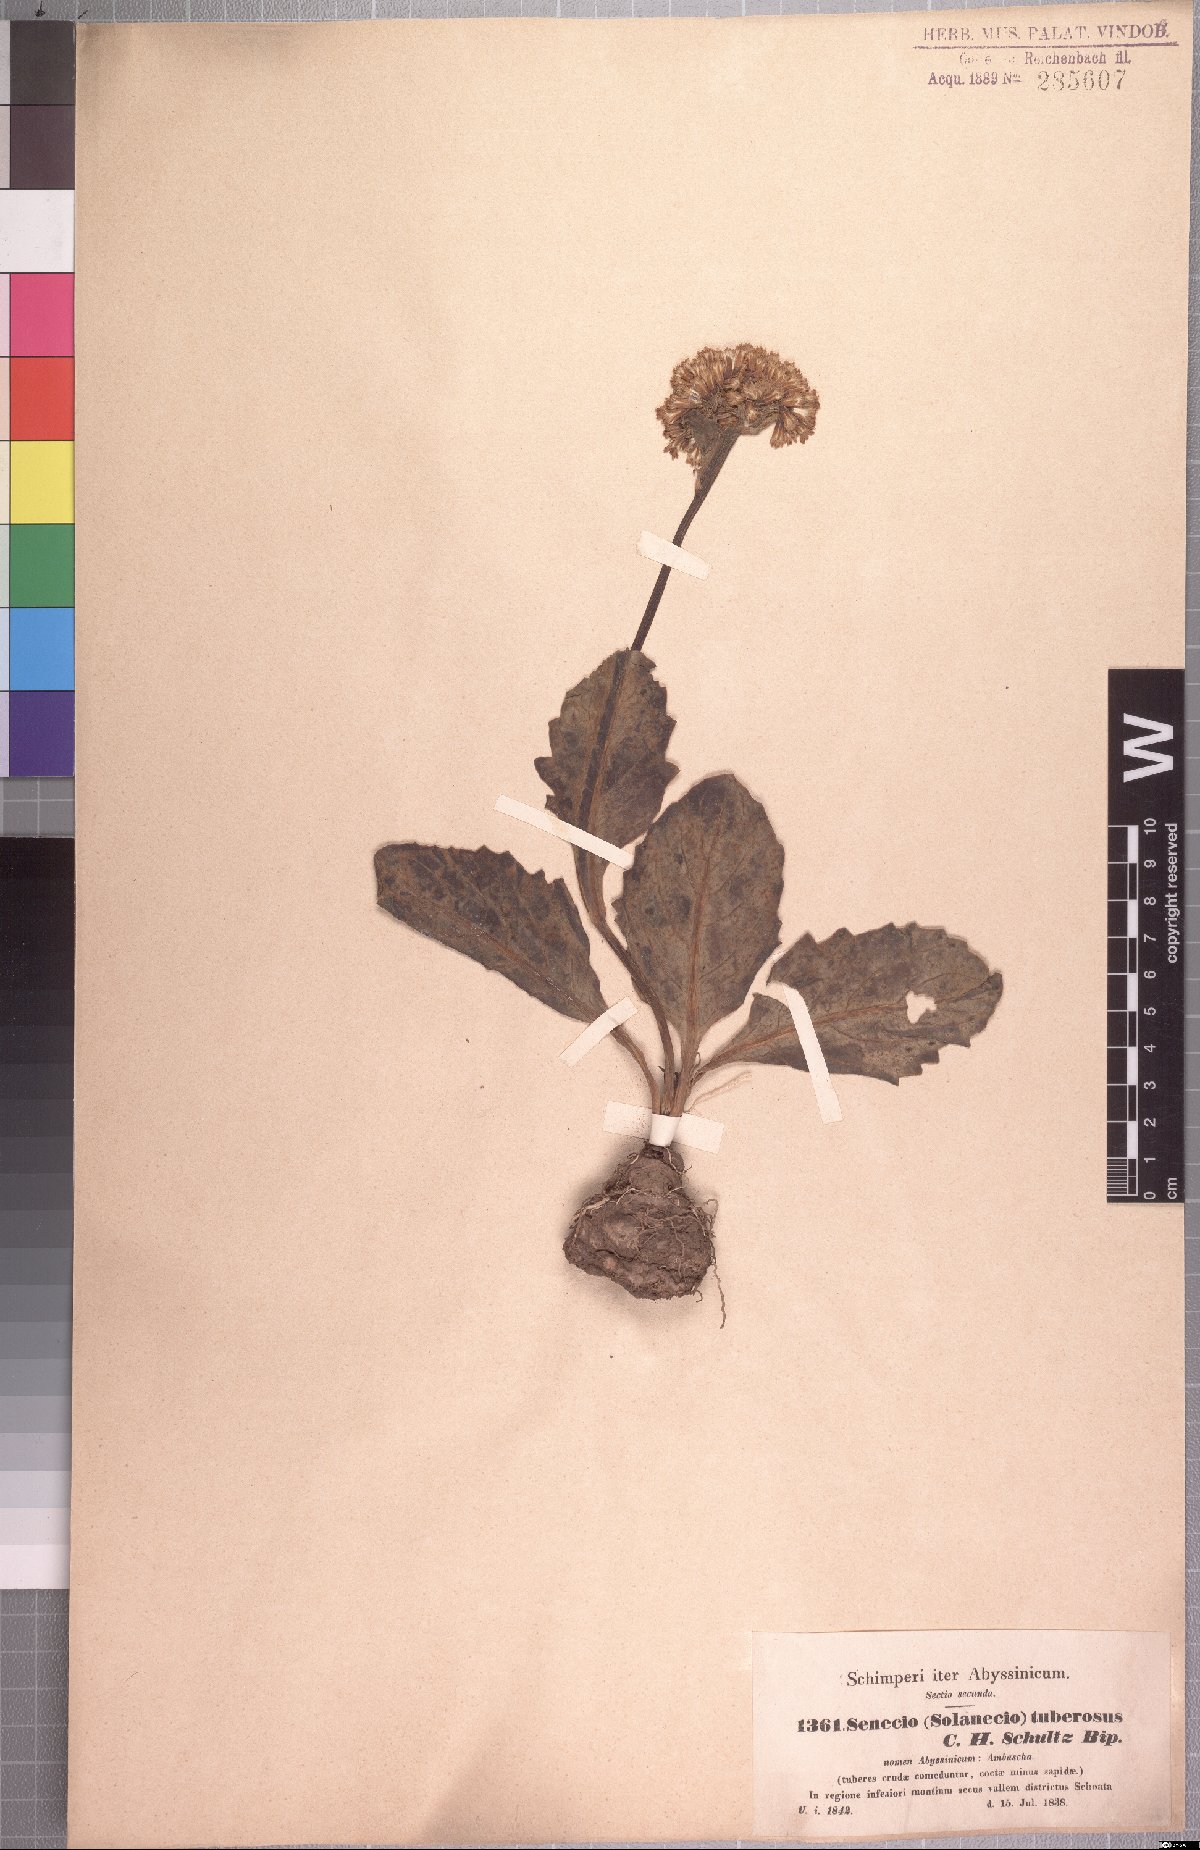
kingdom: Plantae
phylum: Tracheophyta
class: Magnoliopsida
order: Asterales
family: Asteraceae
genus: Solanecio
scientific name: Solanecio tuberosus
